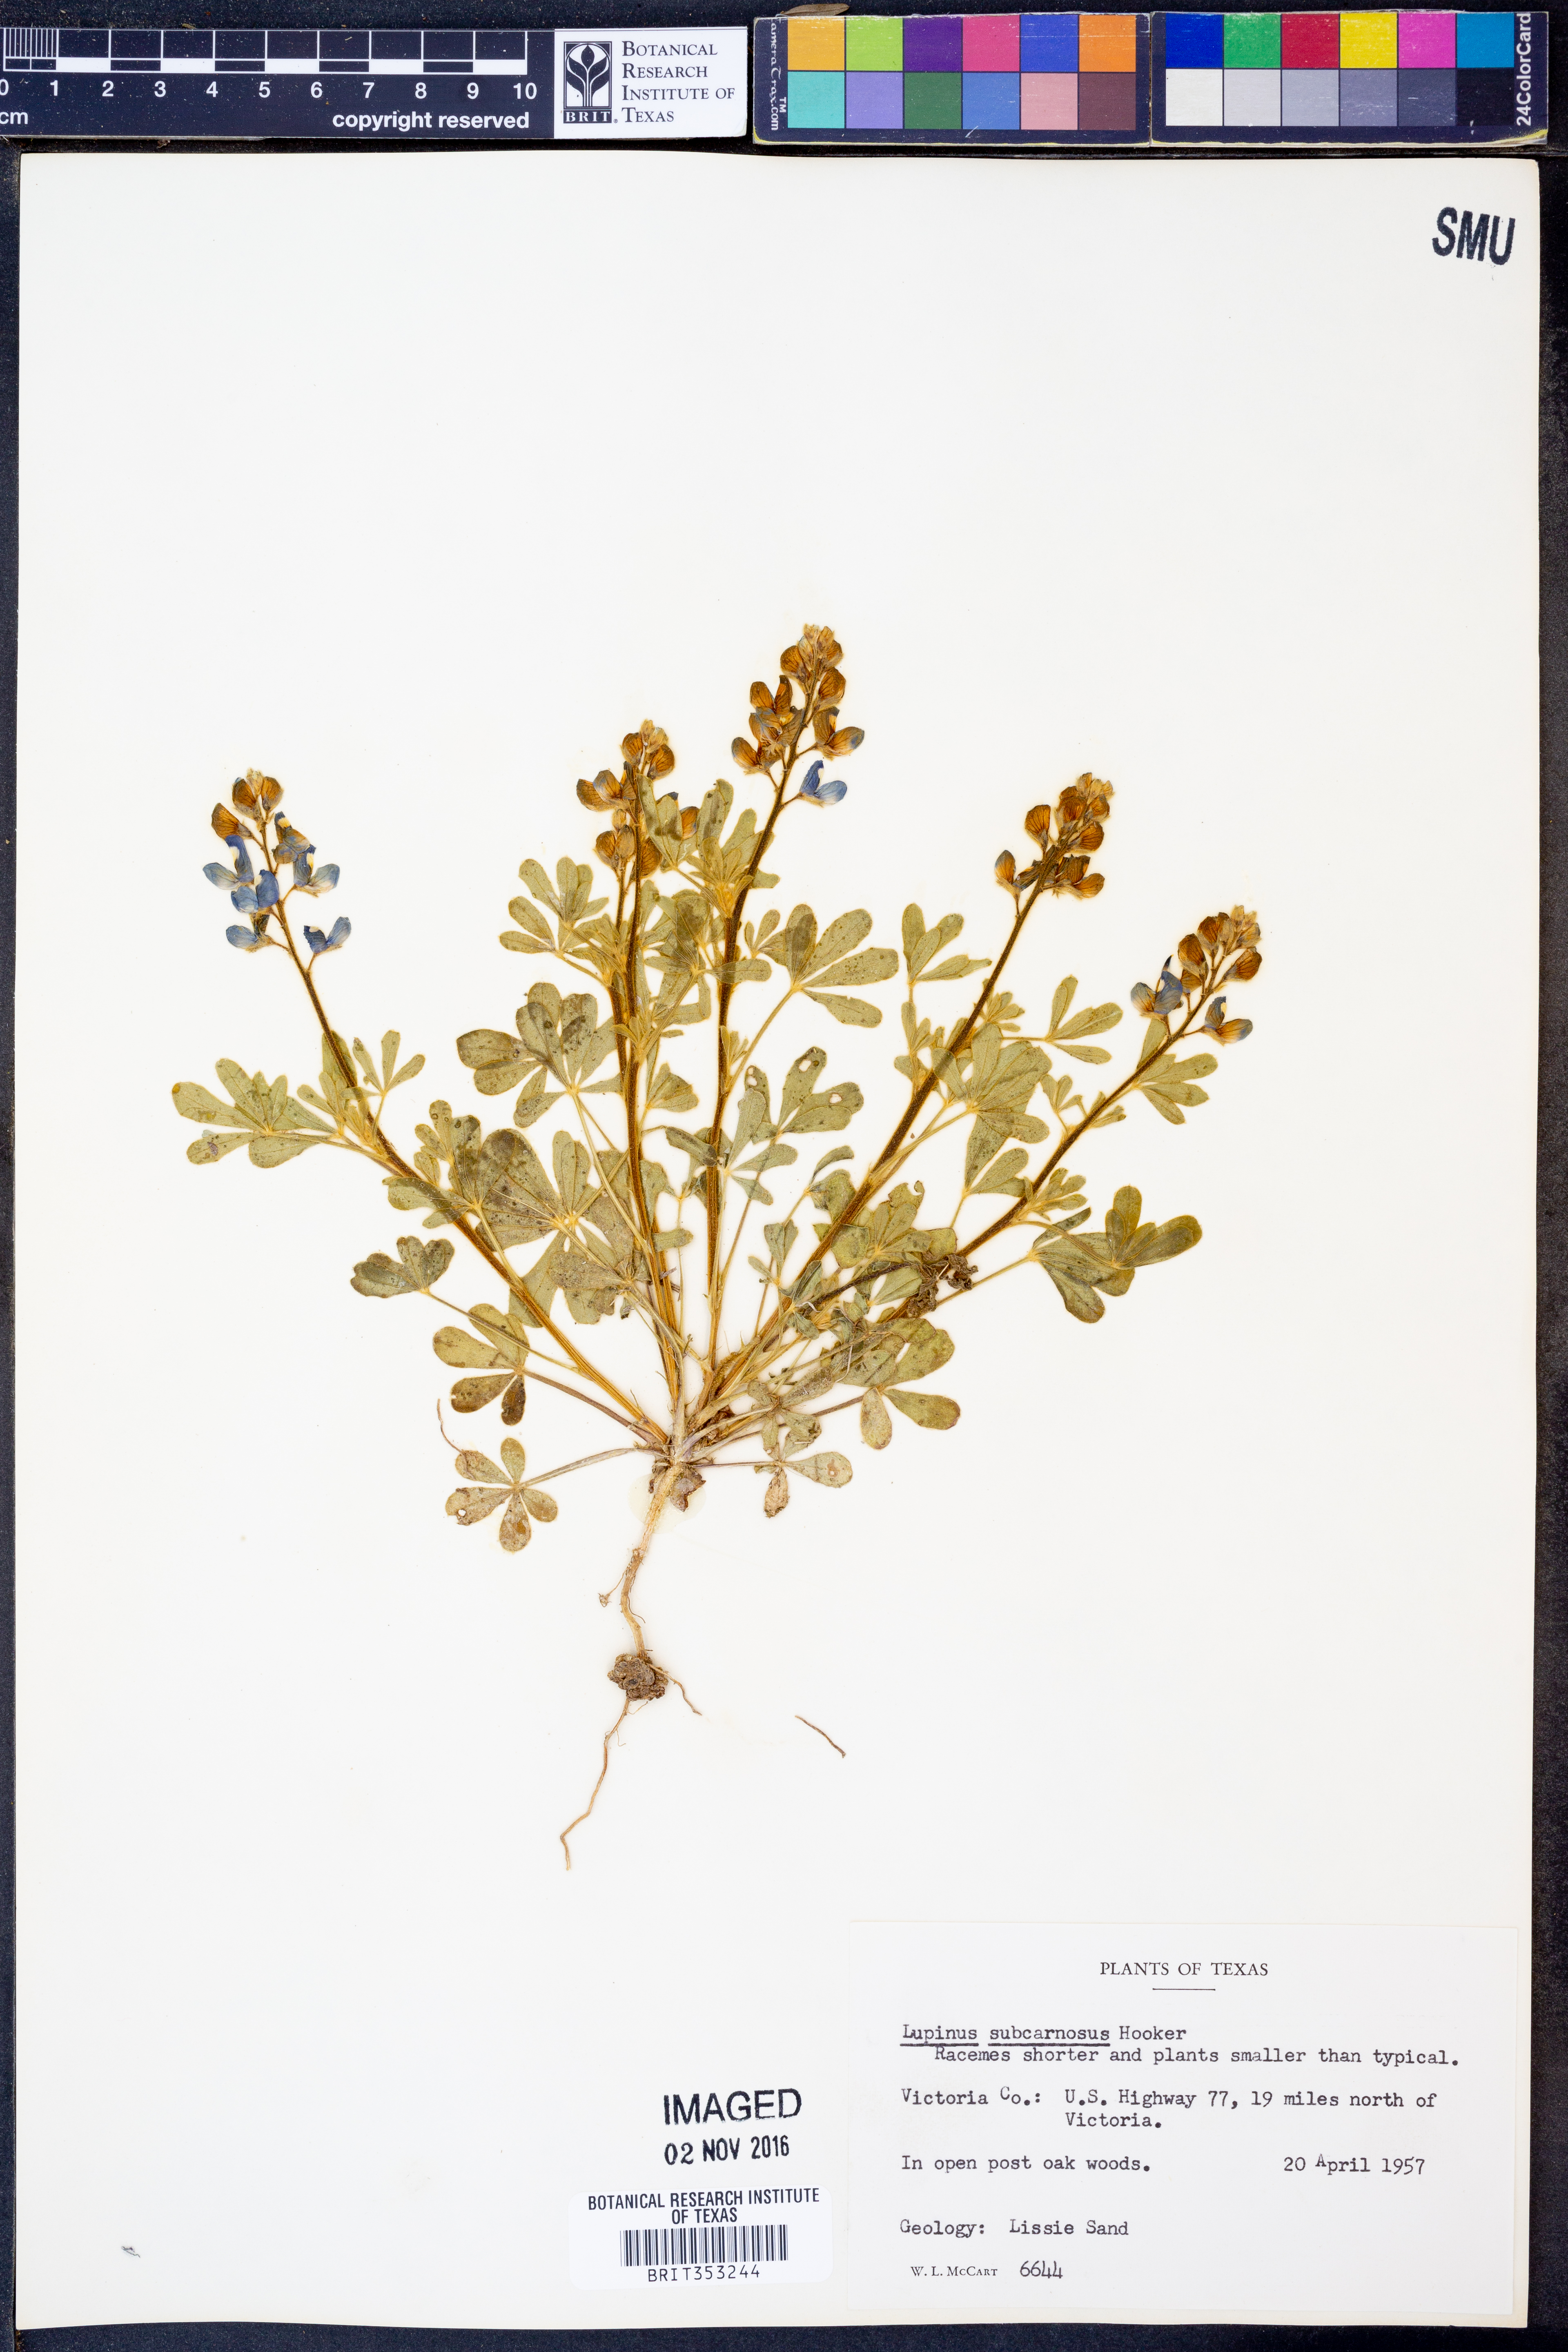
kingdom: Plantae
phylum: Tracheophyta
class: Magnoliopsida
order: Fabales
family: Fabaceae
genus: Lupinus
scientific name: Lupinus subcarnosus
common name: Texas bluebonnet
